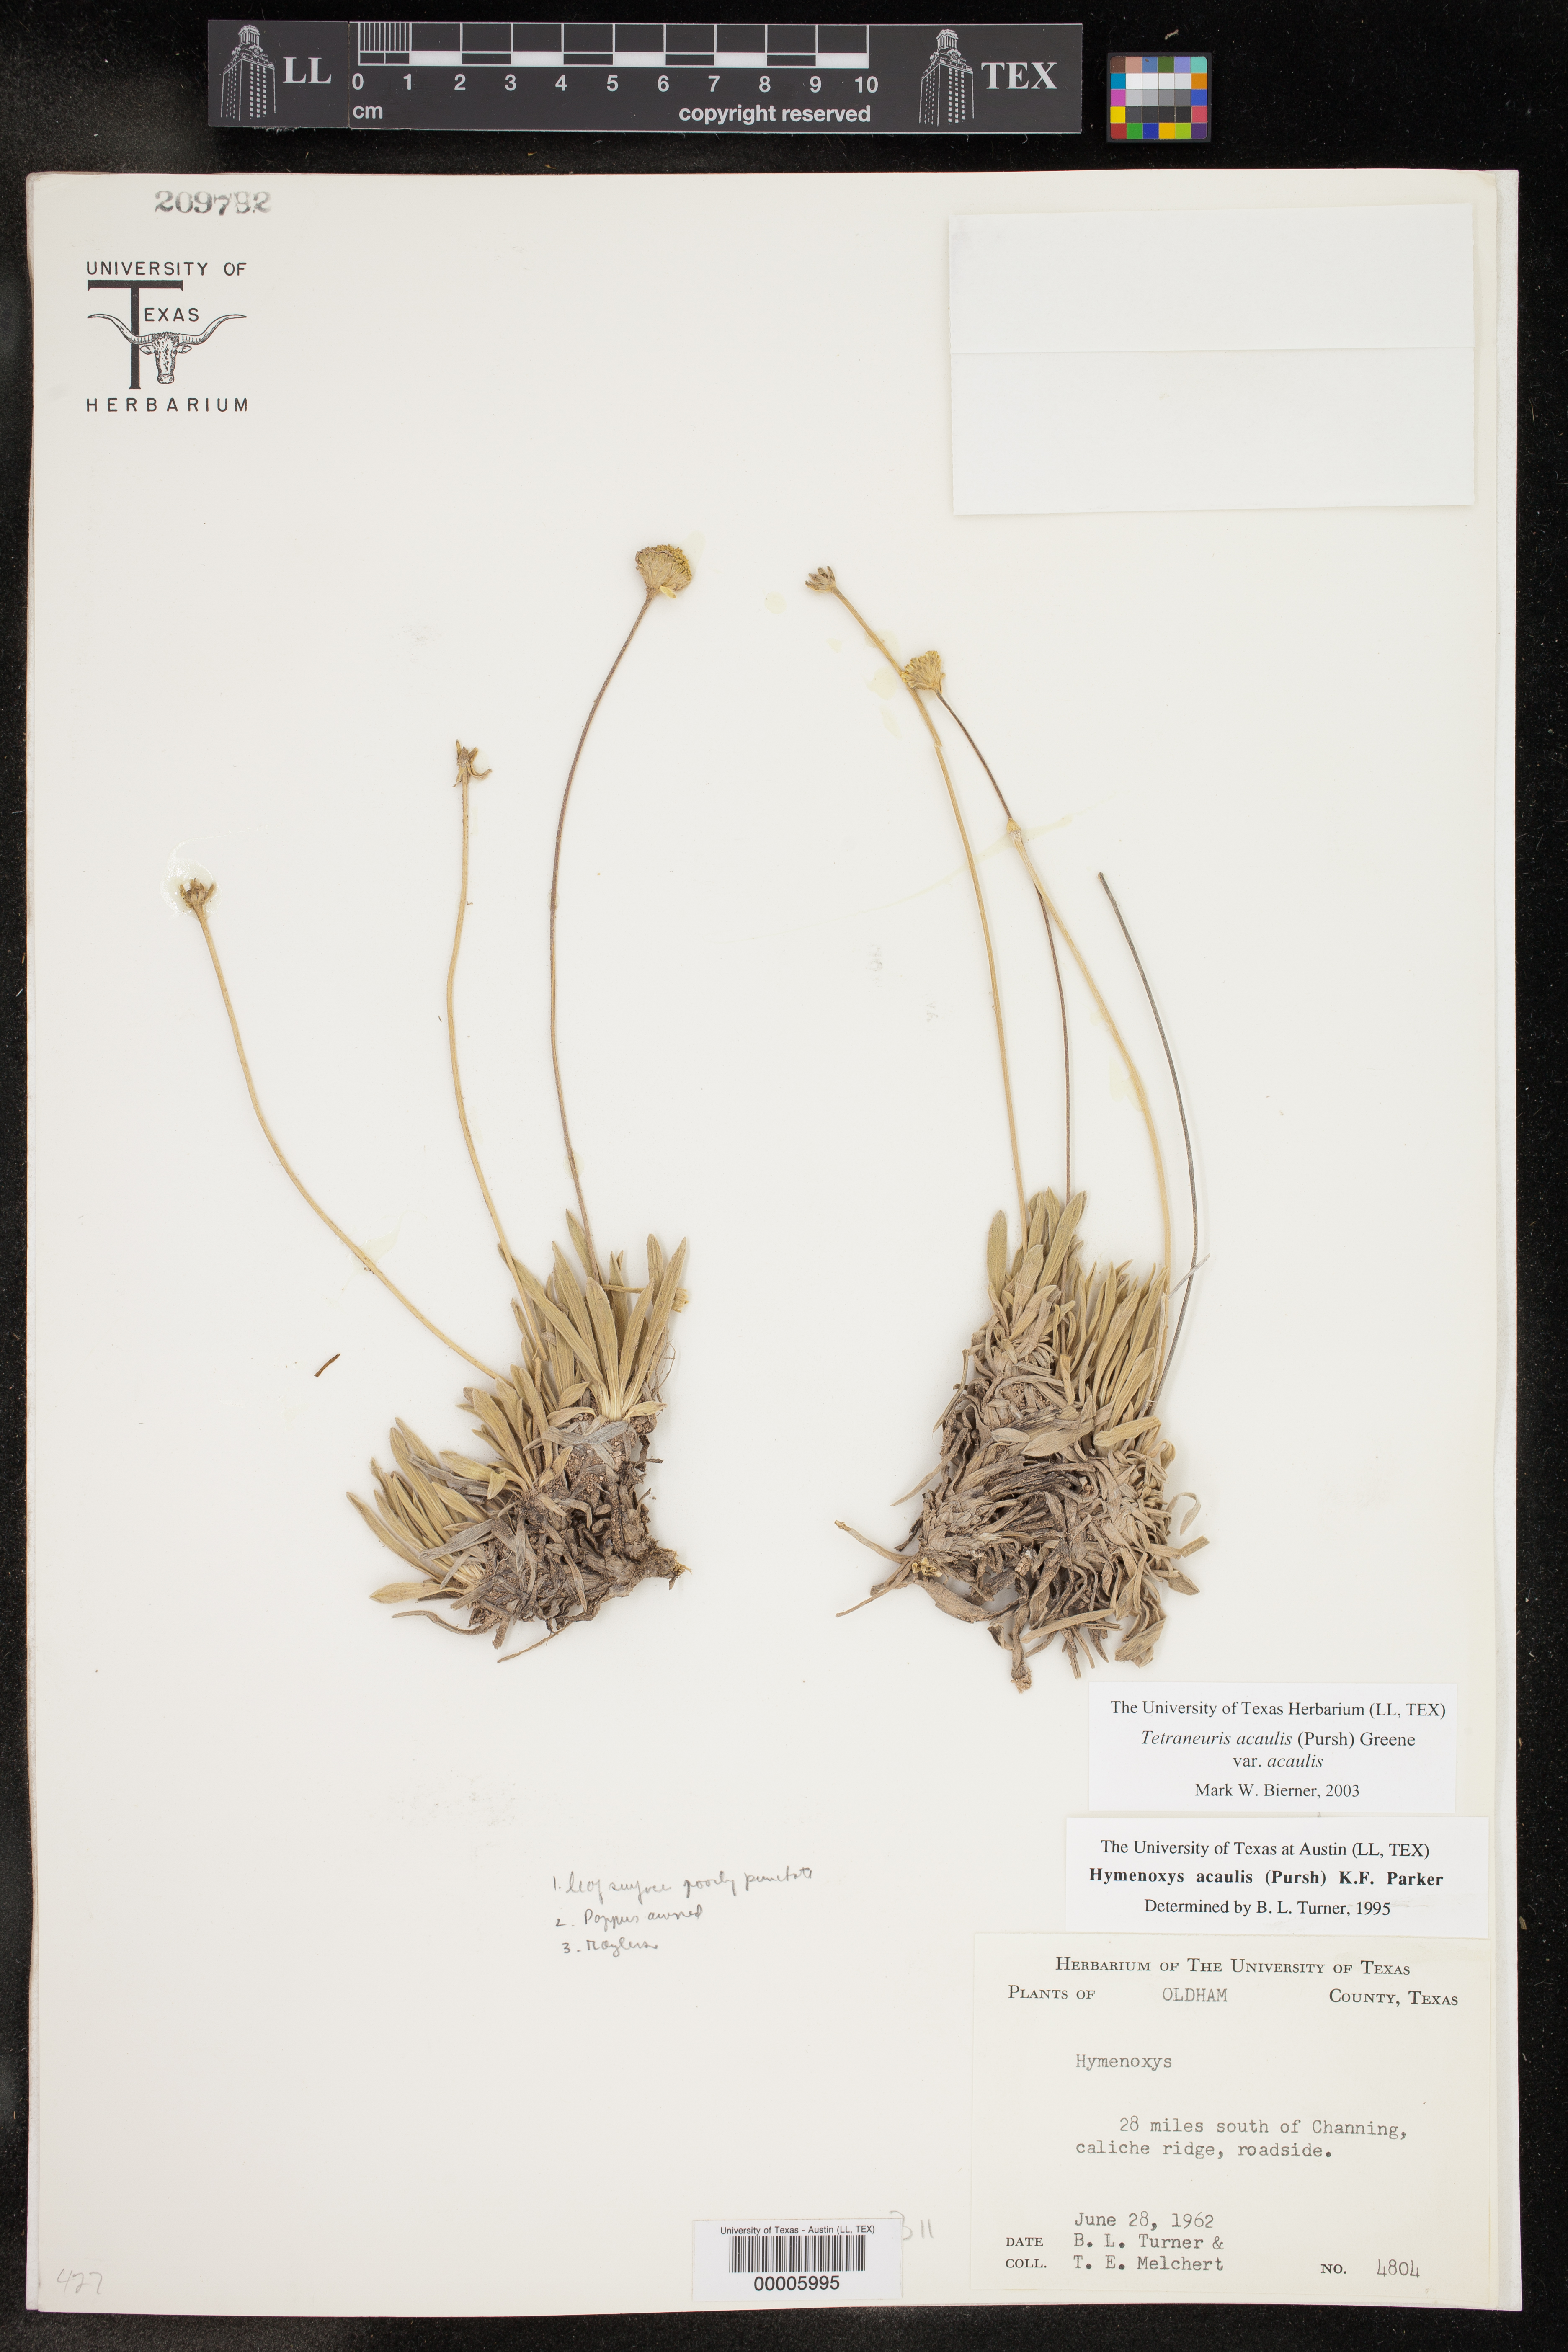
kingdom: Plantae
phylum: Tracheophyta
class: Magnoliopsida
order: Asterales
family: Asteraceae
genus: Tetraneuris
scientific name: Tetraneuris acaulis
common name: Butte marigold
